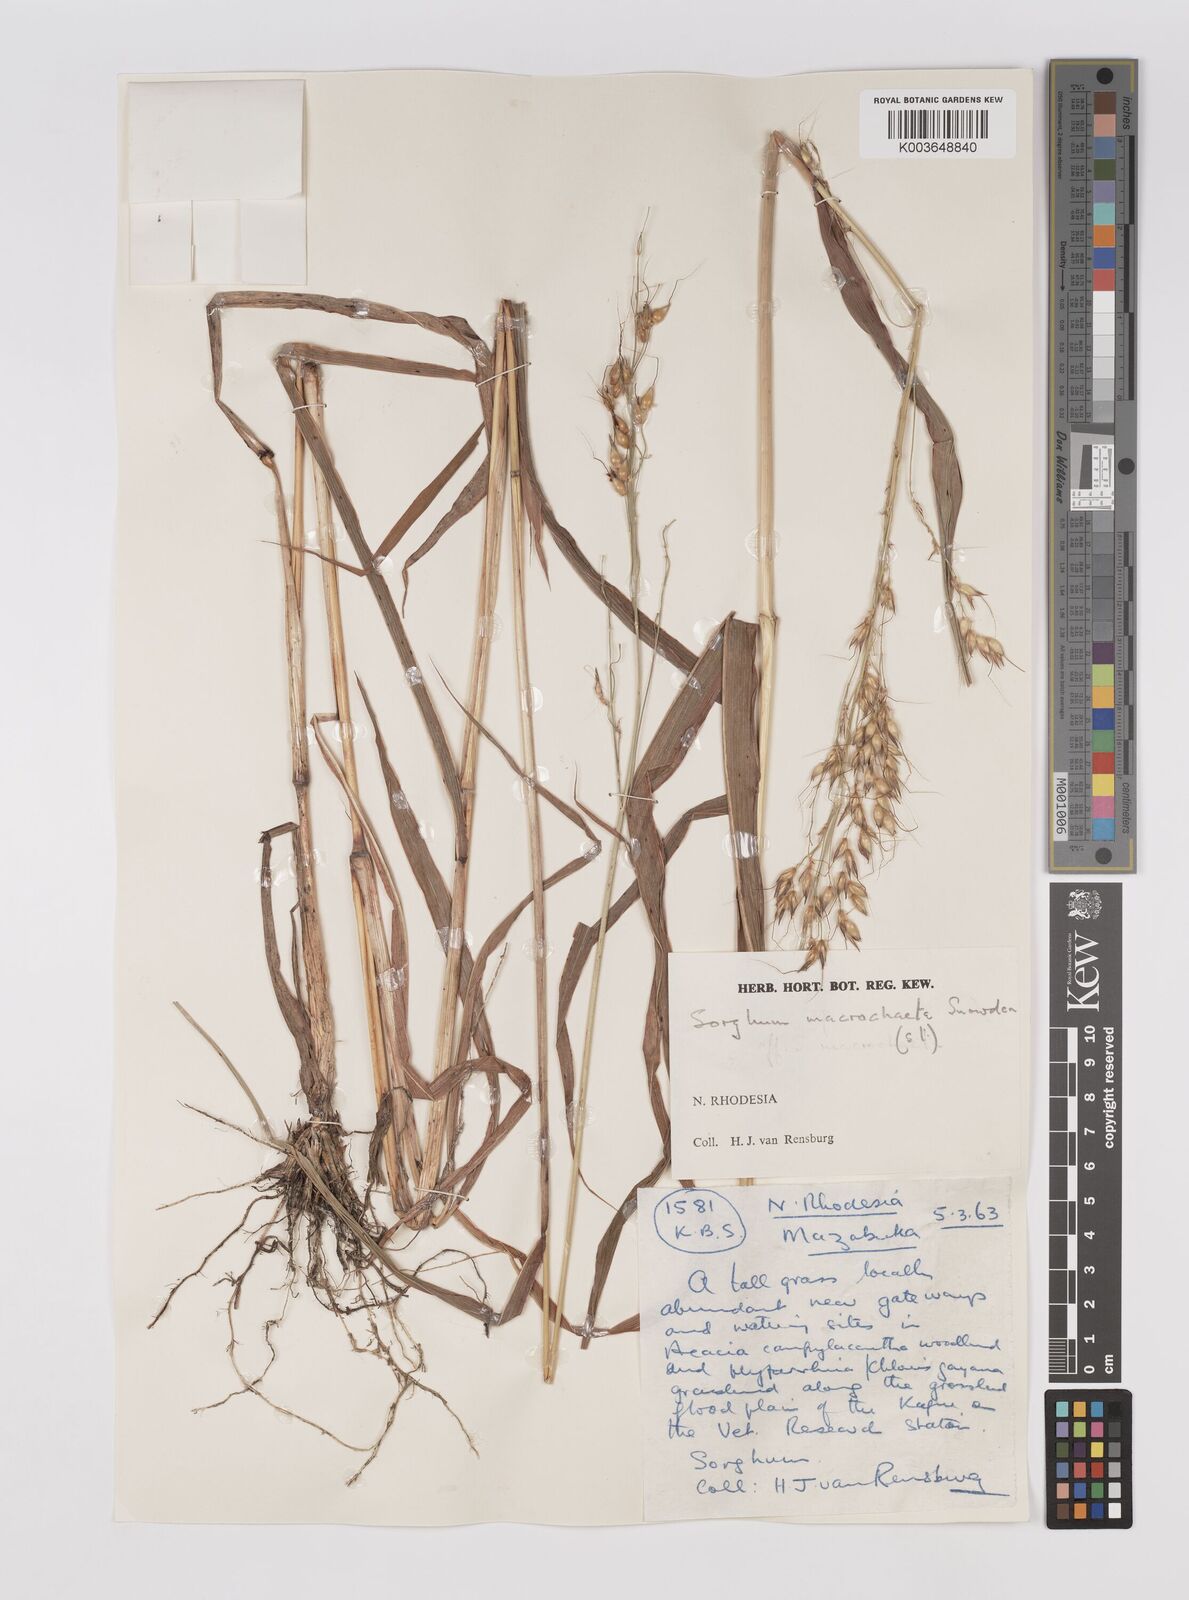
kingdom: Plantae
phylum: Tracheophyta
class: Liliopsida
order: Poales
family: Poaceae
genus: Sorghum
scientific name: Sorghum arundinaceum
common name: Sorghum
